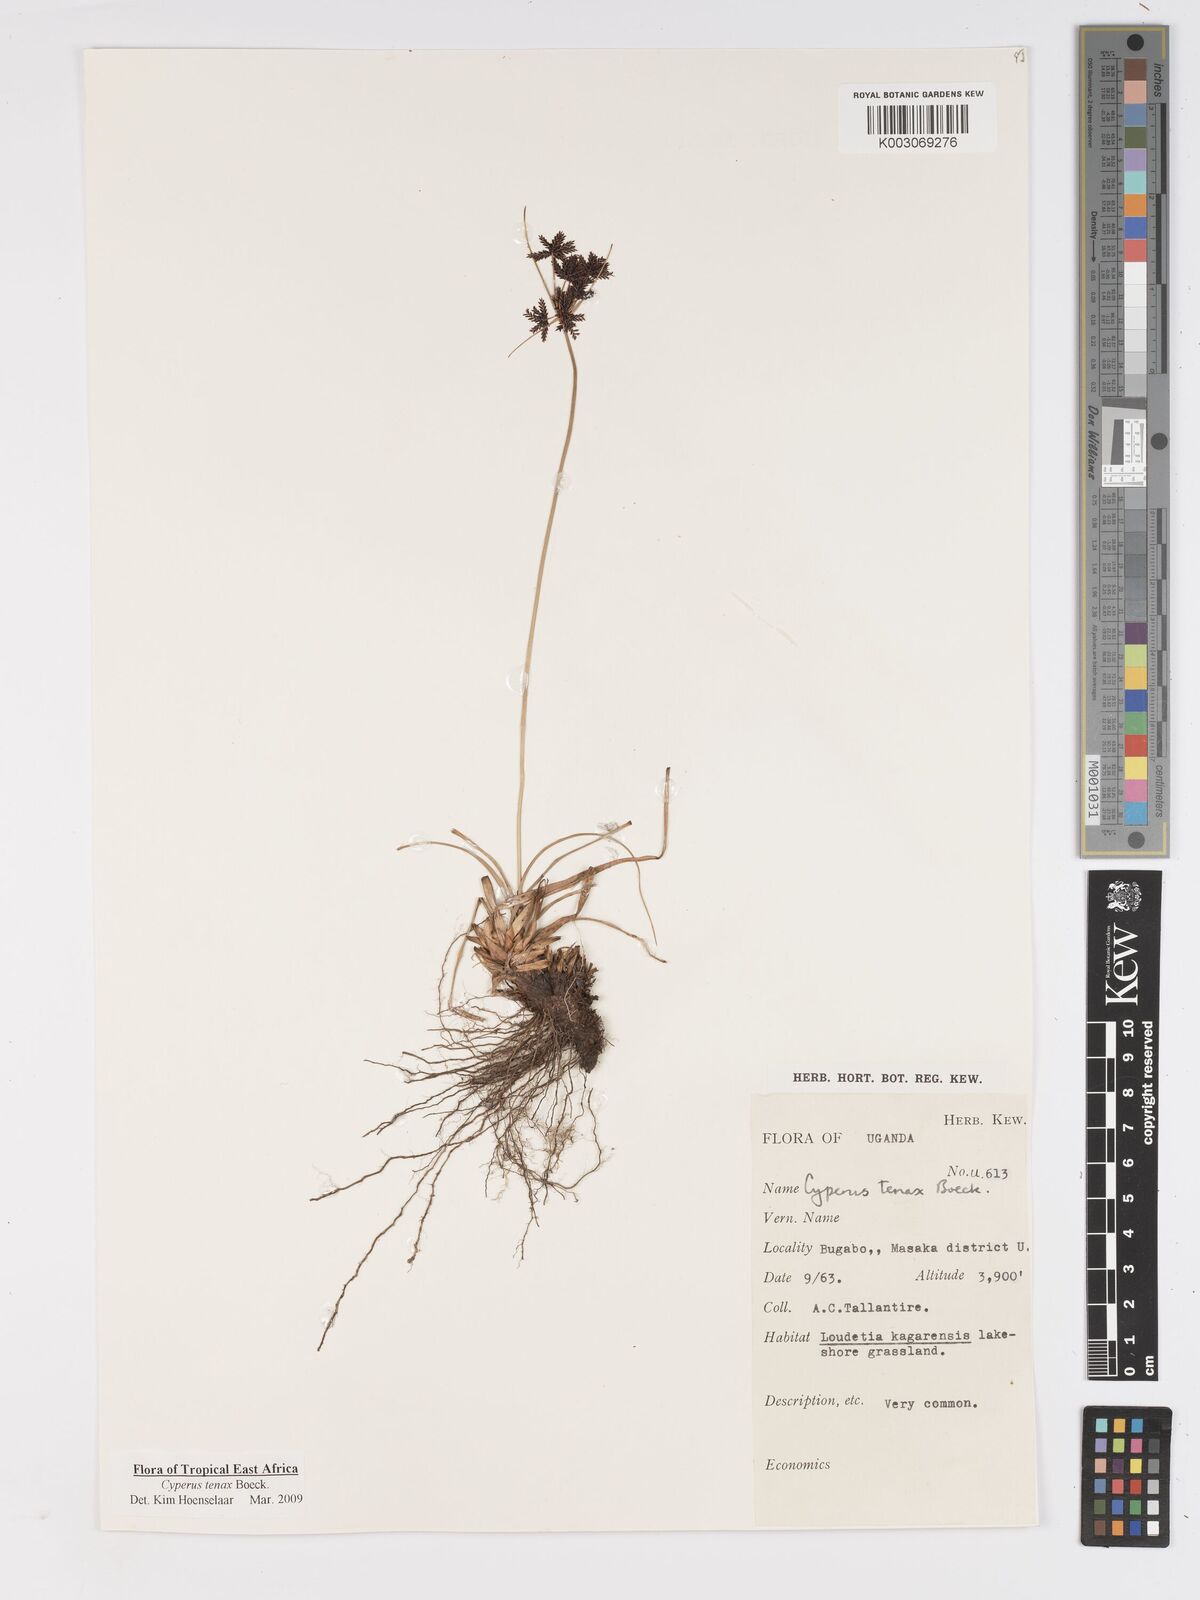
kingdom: Plantae
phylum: Tracheophyta
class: Liliopsida
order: Poales
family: Cyperaceae
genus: Cyperus
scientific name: Cyperus tenax
